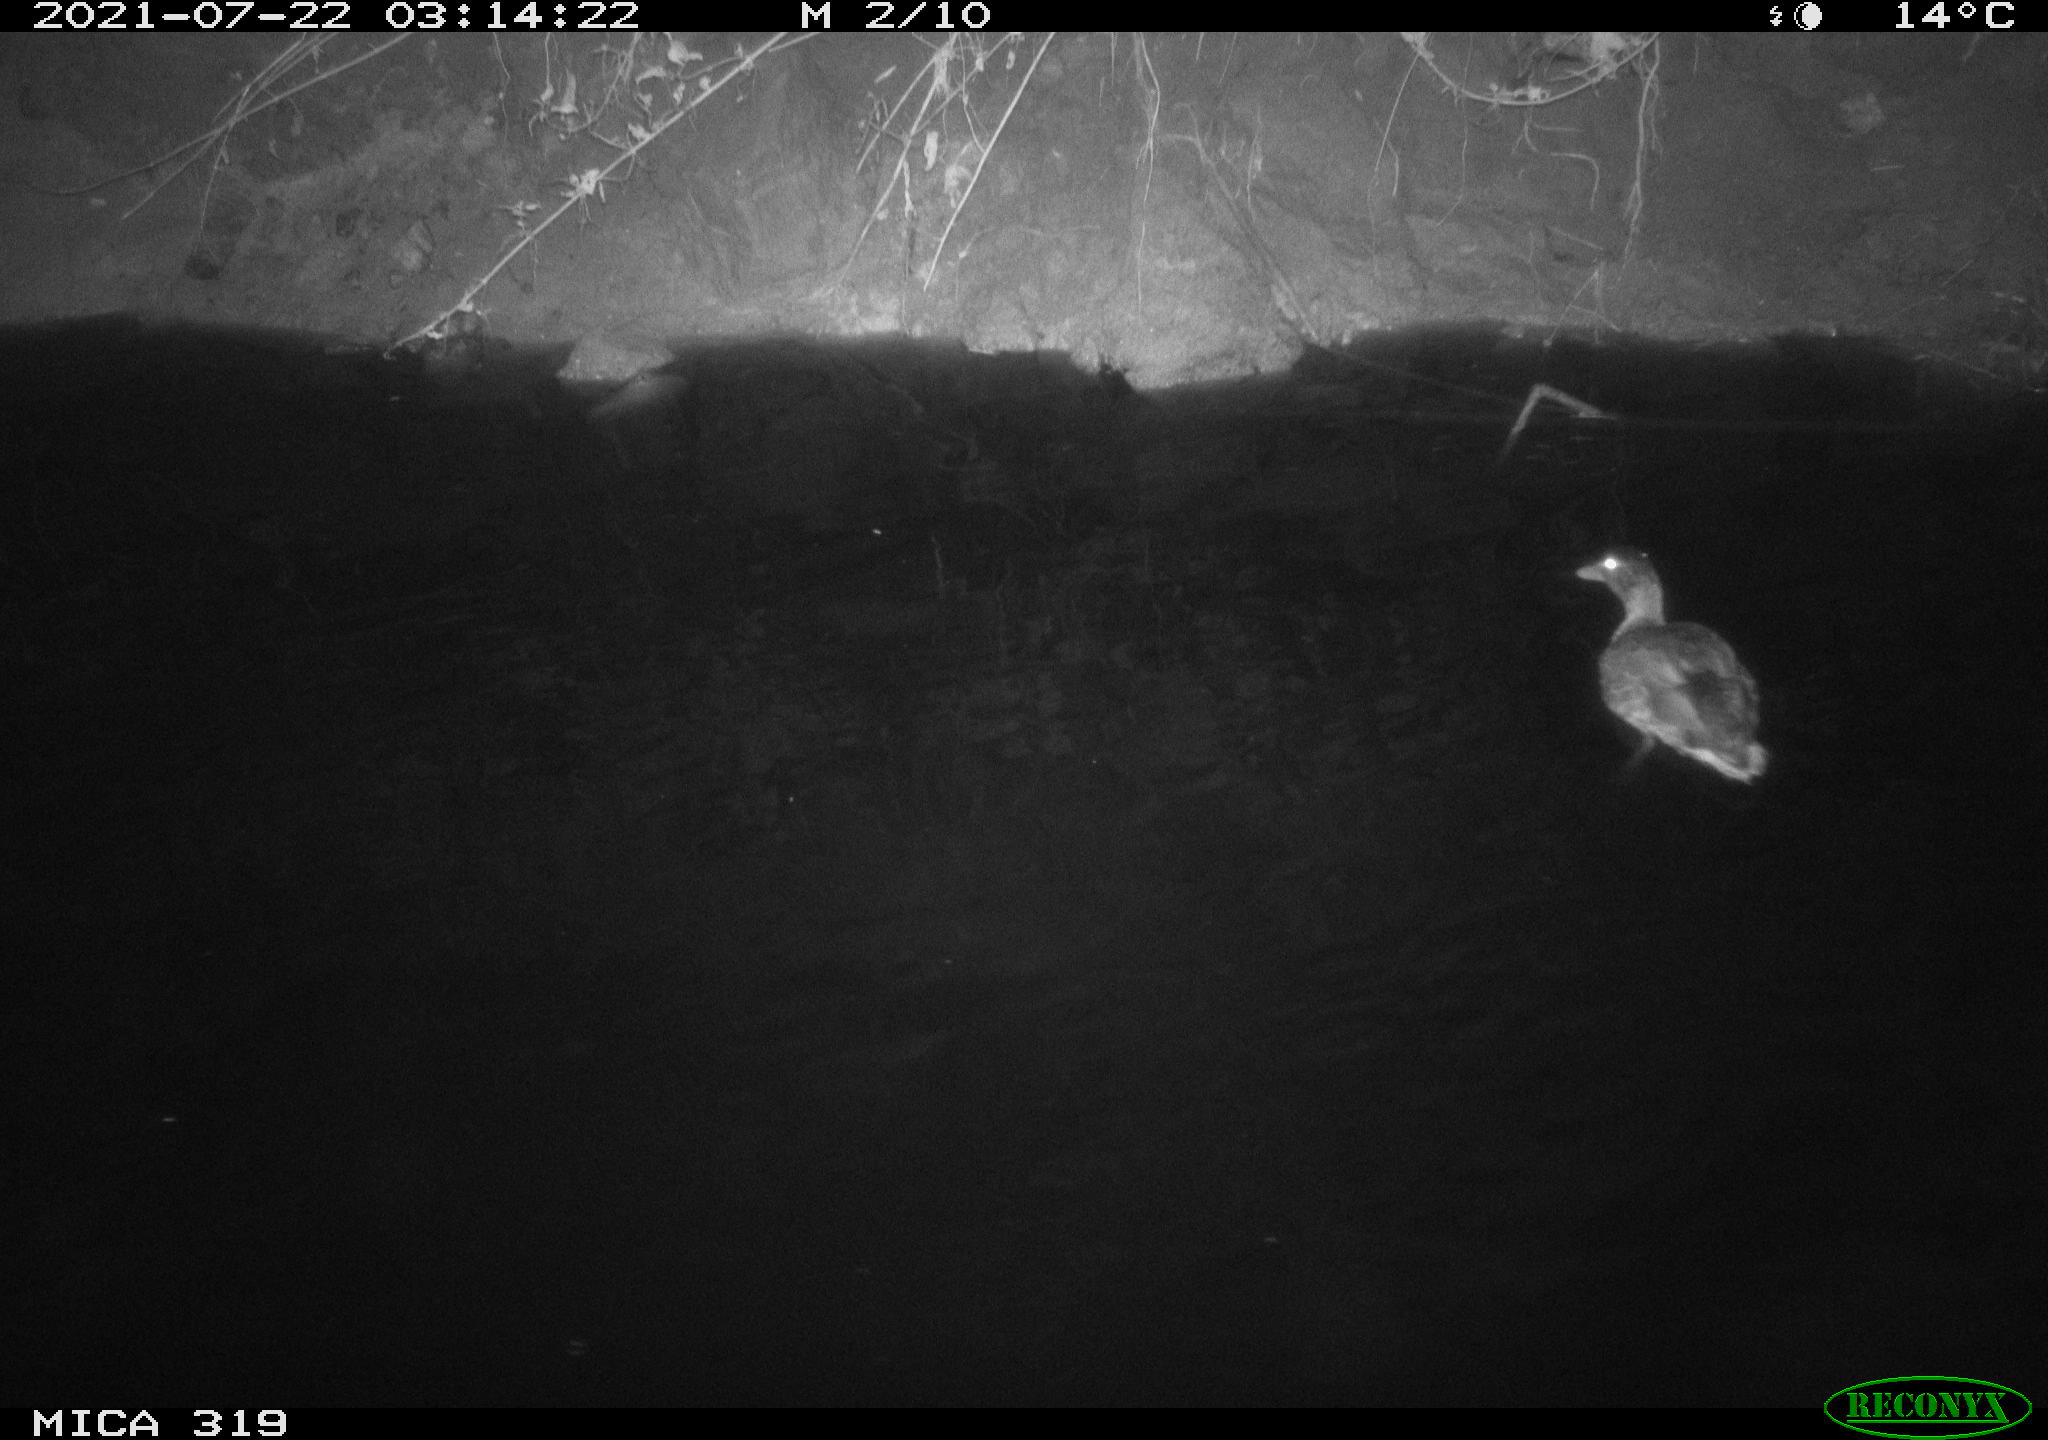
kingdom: Animalia
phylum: Chordata
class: Aves
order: Anseriformes
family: Anatidae
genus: Anas
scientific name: Anas platyrhynchos
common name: Mallard
